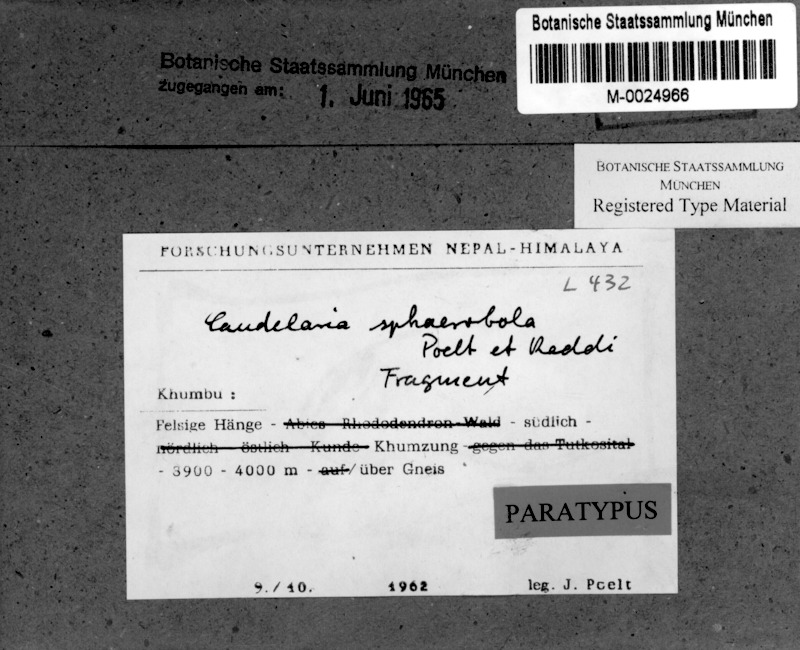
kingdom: Fungi
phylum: Ascomycota
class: Candelariomycetes
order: Candelariales
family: Candelariaceae
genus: Candelaria
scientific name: Candelaria
